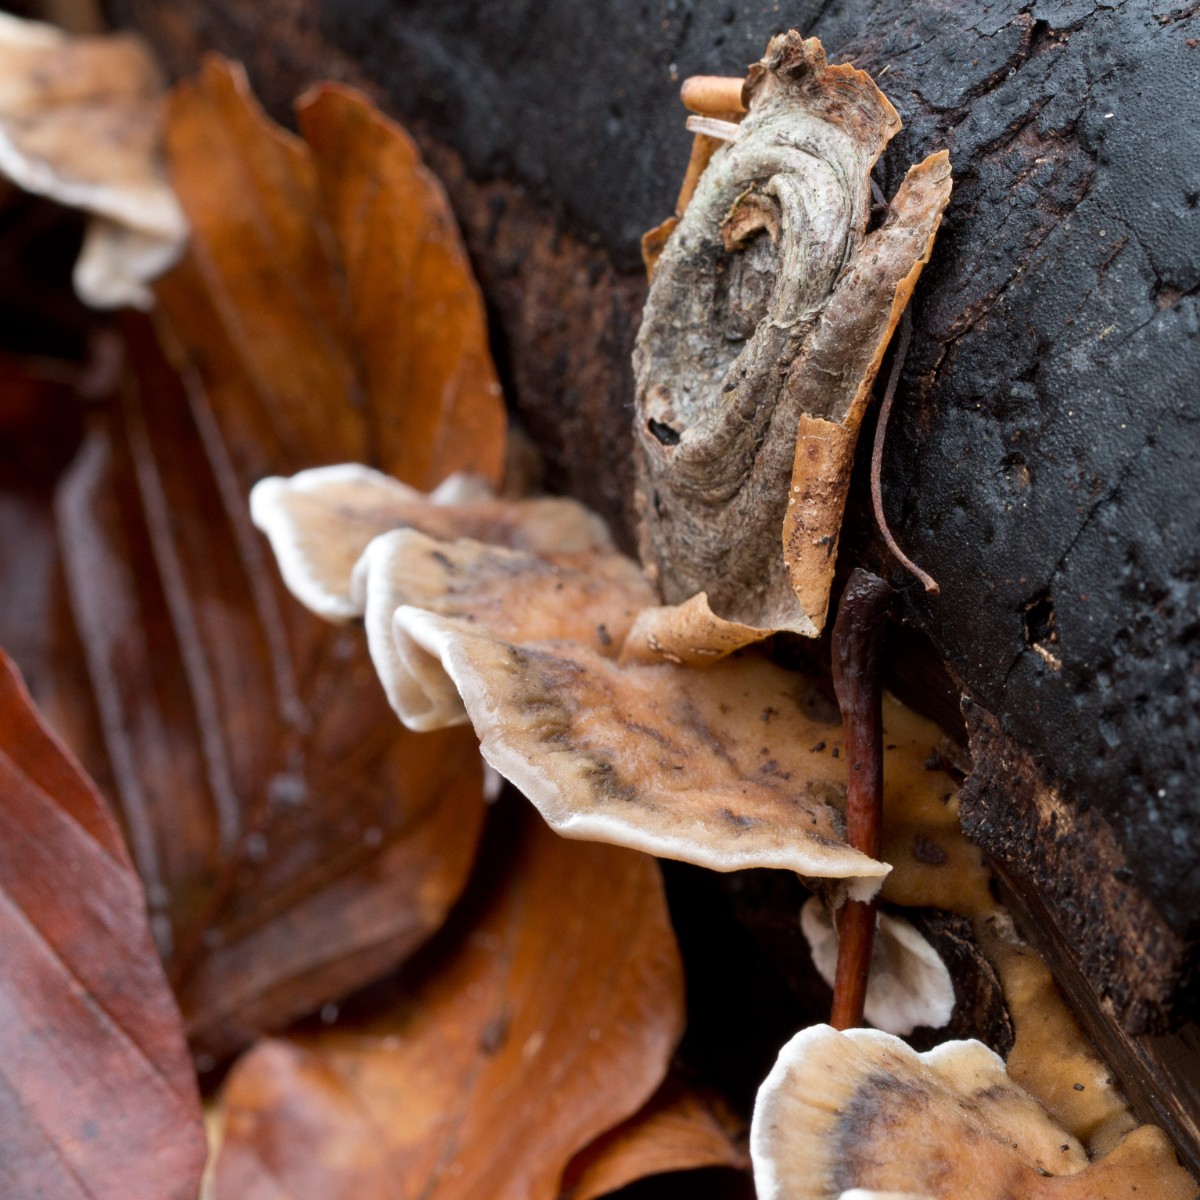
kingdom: Fungi
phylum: Basidiomycota
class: Agaricomycetes
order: Polyporales
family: Phanerochaetaceae
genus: Bjerkandera
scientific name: Bjerkandera adusta
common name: sveden sodporesvamp
